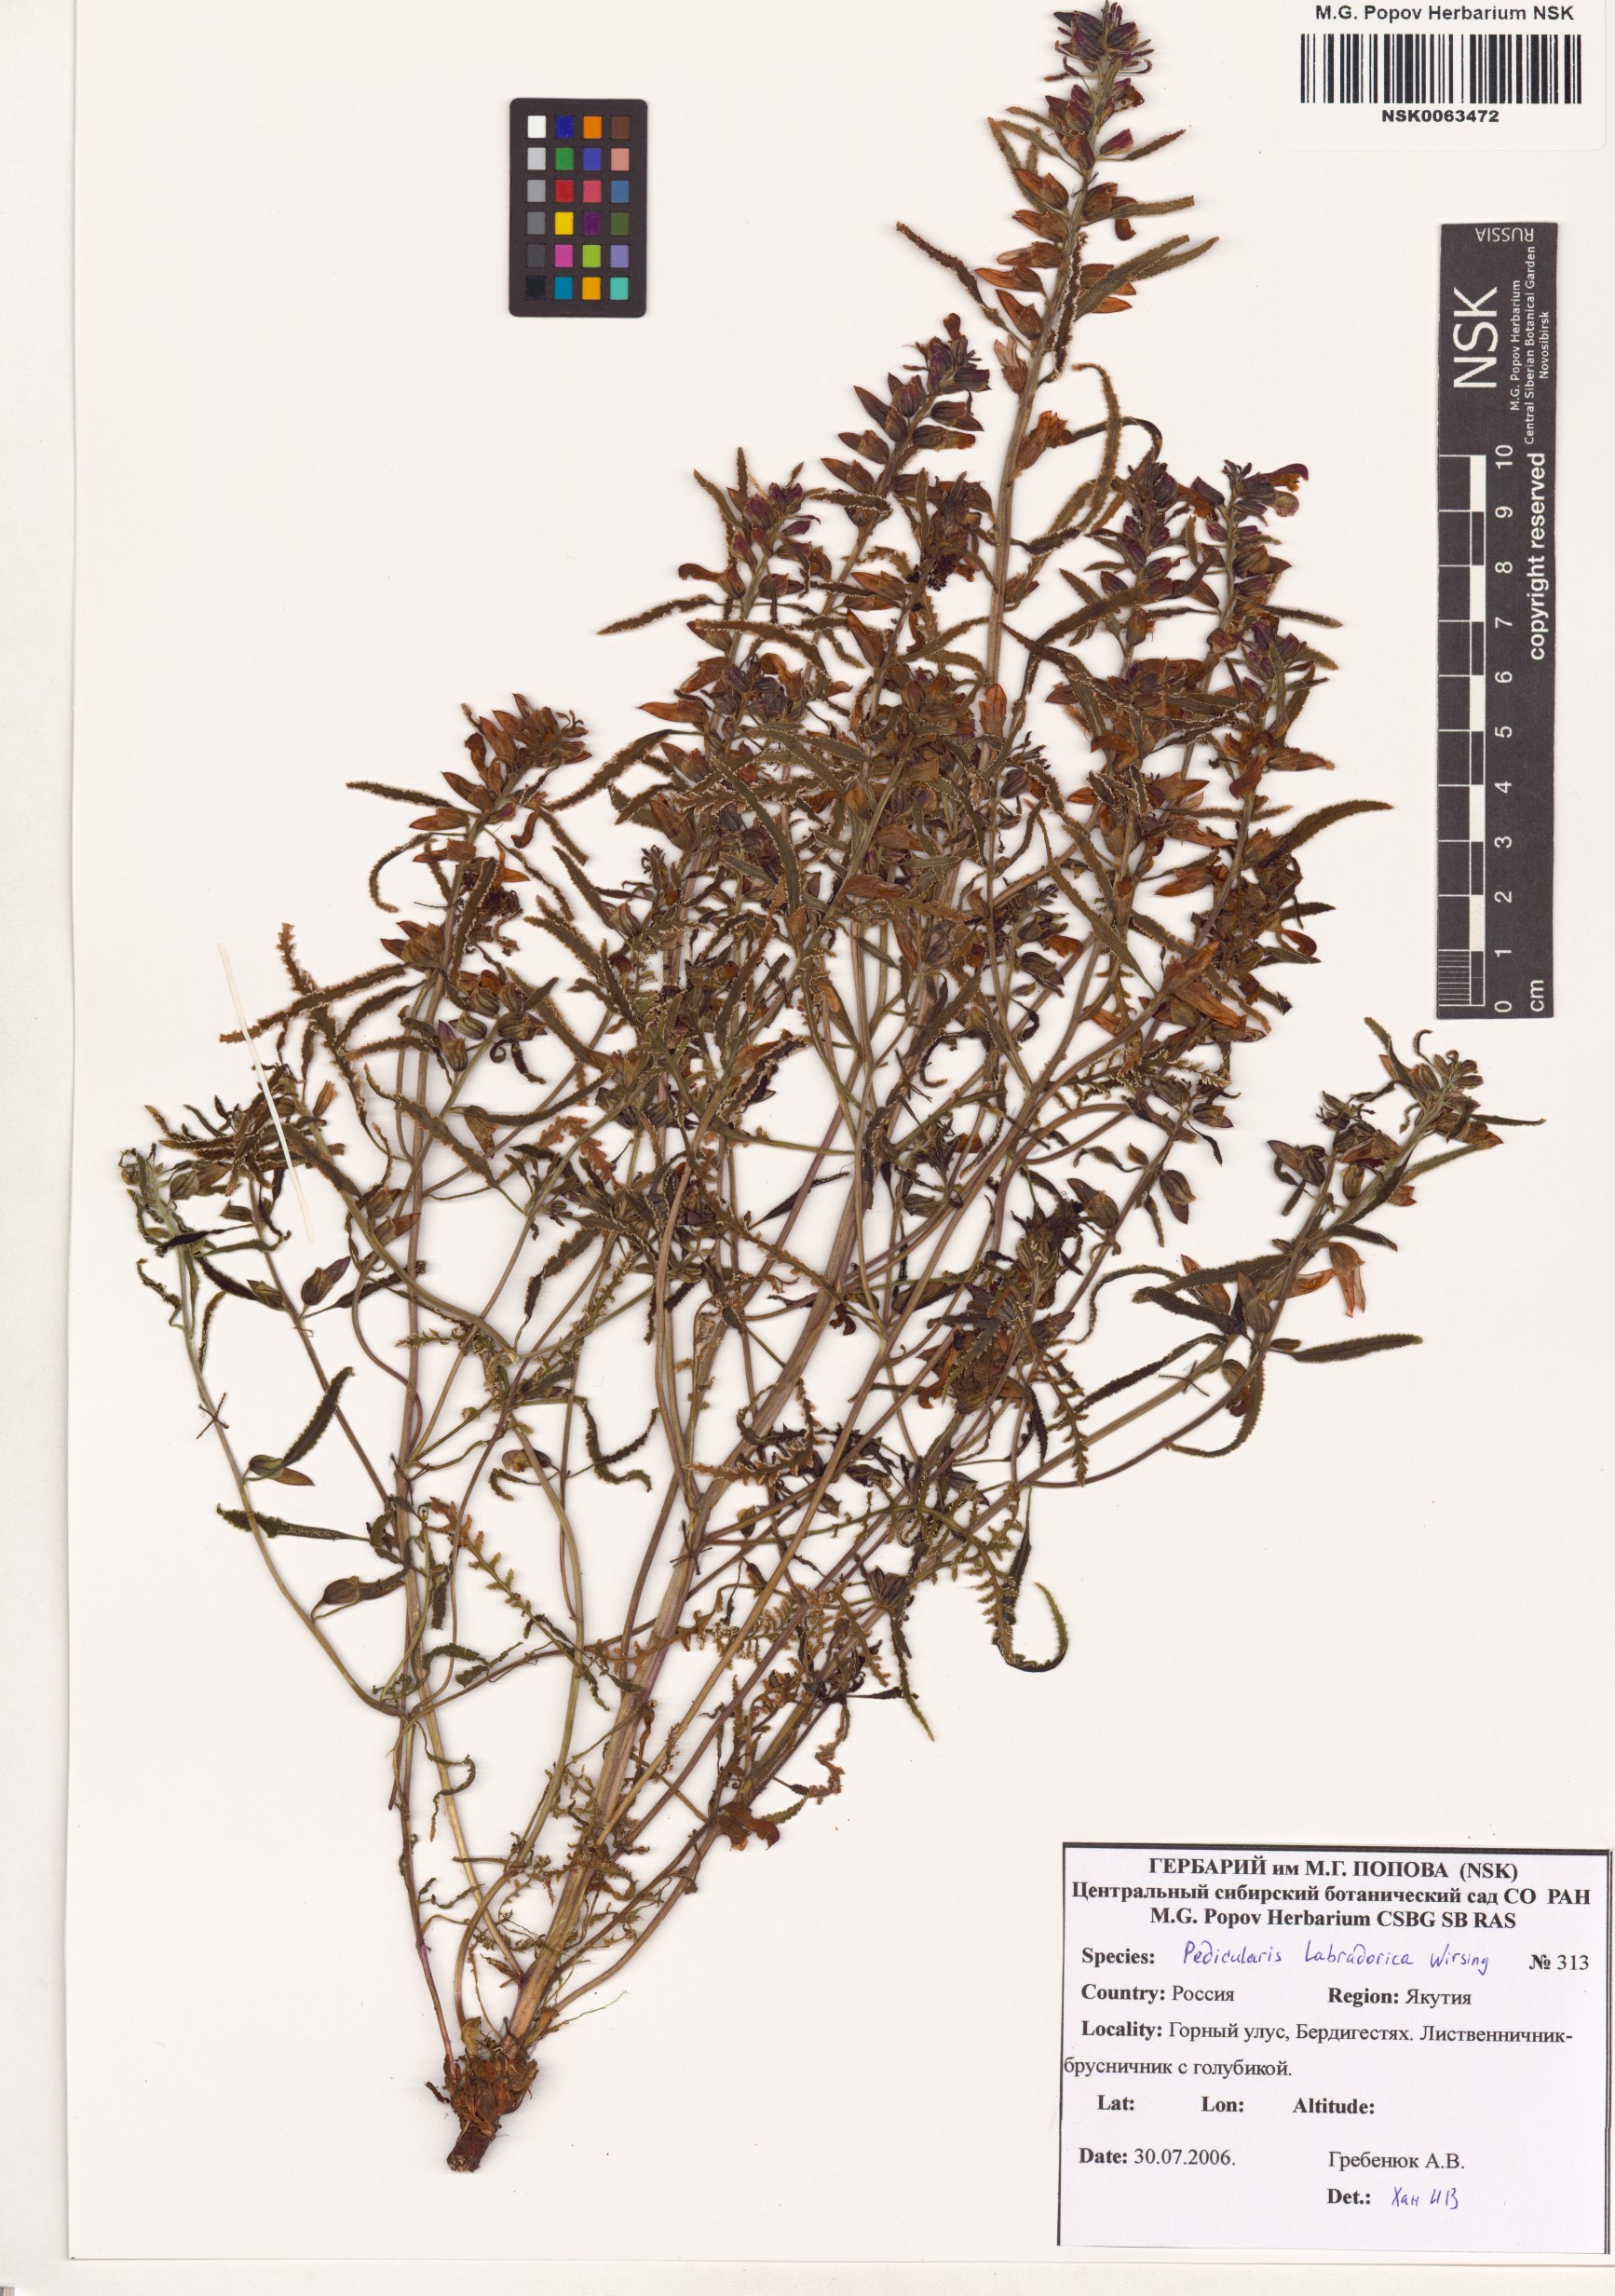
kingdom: Plantae
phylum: Tracheophyta
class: Magnoliopsida
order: Lamiales
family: Orobanchaceae
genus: Pedicularis
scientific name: Pedicularis labradorica
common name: Labrador lousewort
